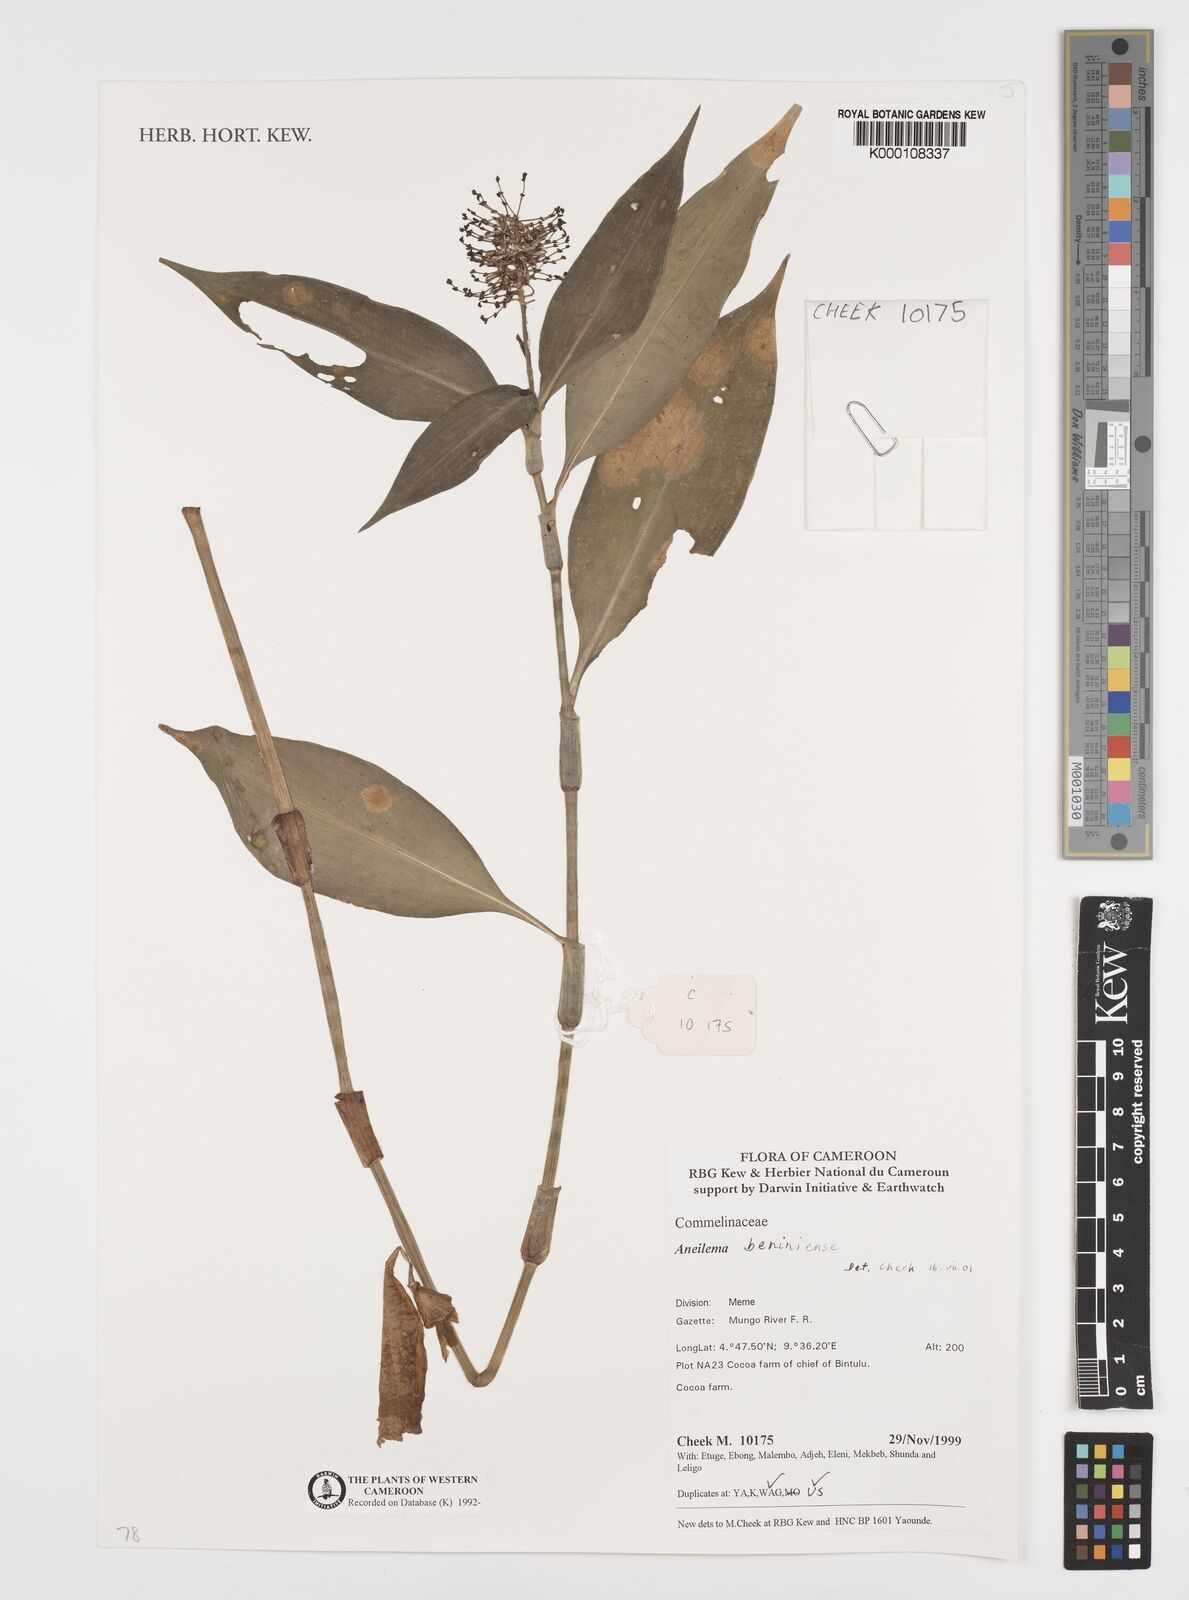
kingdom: Plantae
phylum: Tracheophyta
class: Liliopsida
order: Commelinales
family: Commelinaceae
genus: Aneilema
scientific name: Aneilema beniniense
